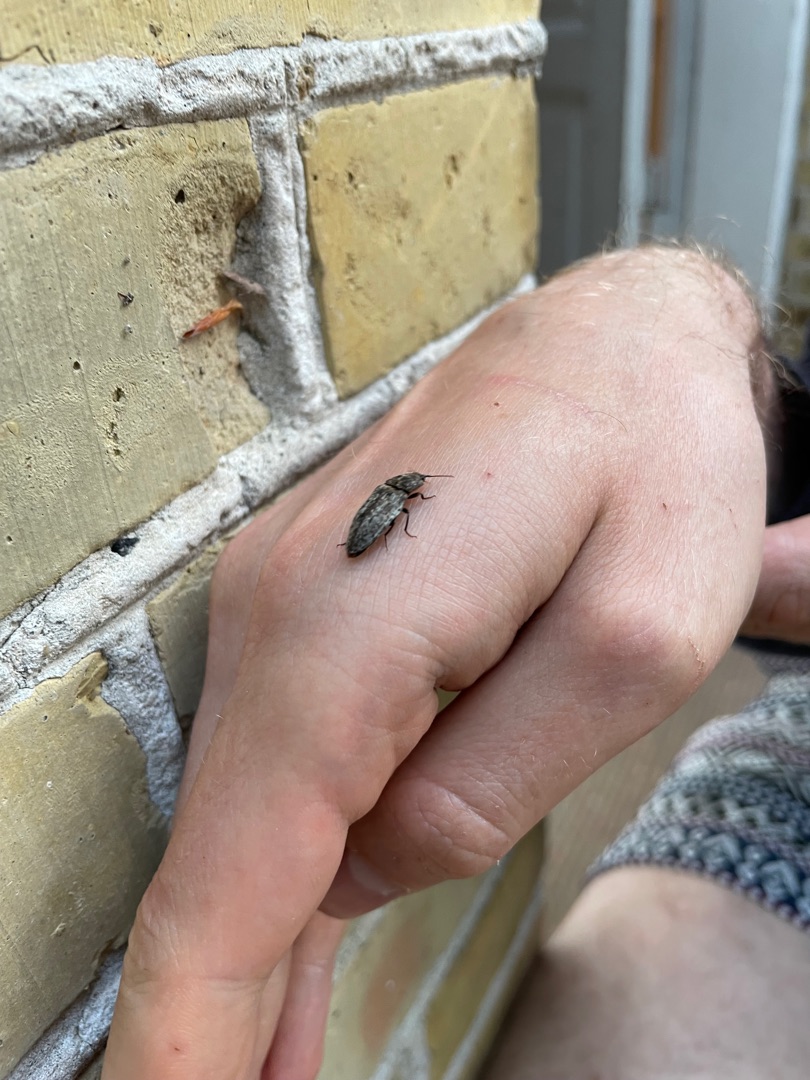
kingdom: Animalia
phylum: Arthropoda
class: Insecta
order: Coleoptera
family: Elateridae
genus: Agrypnus
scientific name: Agrypnus murinus
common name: Musegrå smælder
